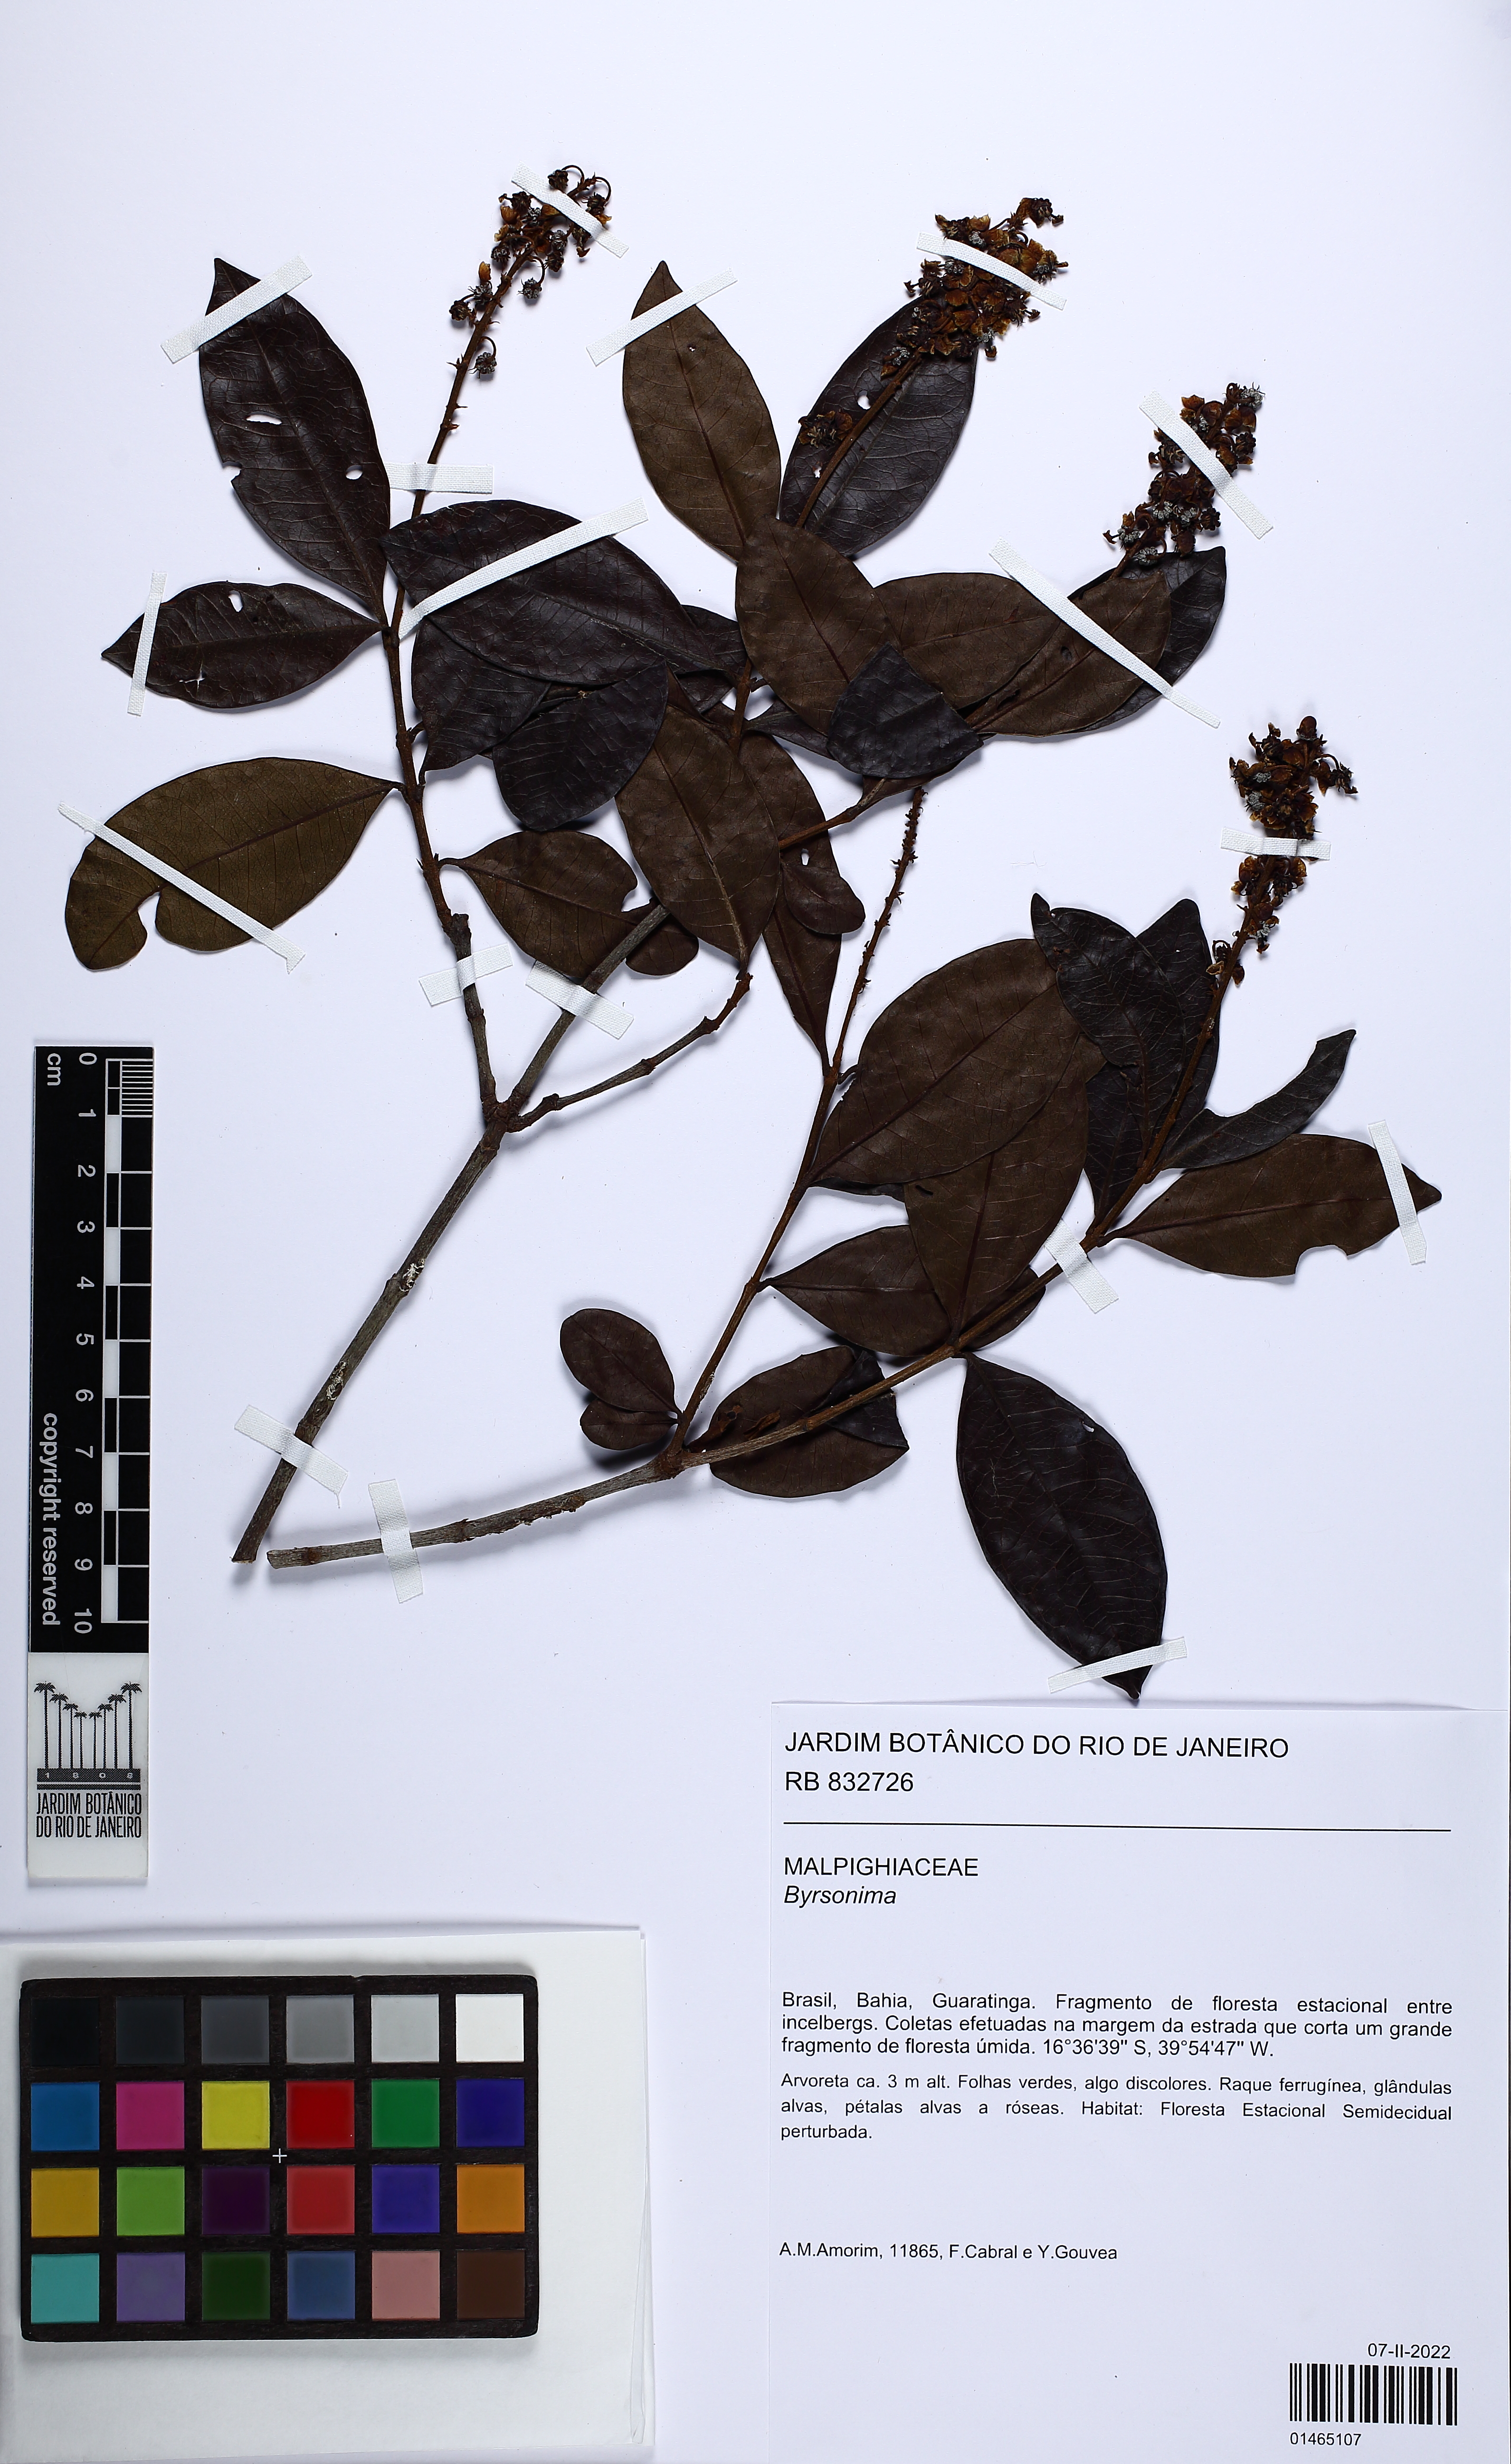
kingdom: Plantae
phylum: Tracheophyta
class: Magnoliopsida
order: Malpighiales
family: Malpighiaceae
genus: Byrsonima
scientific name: Byrsonima
